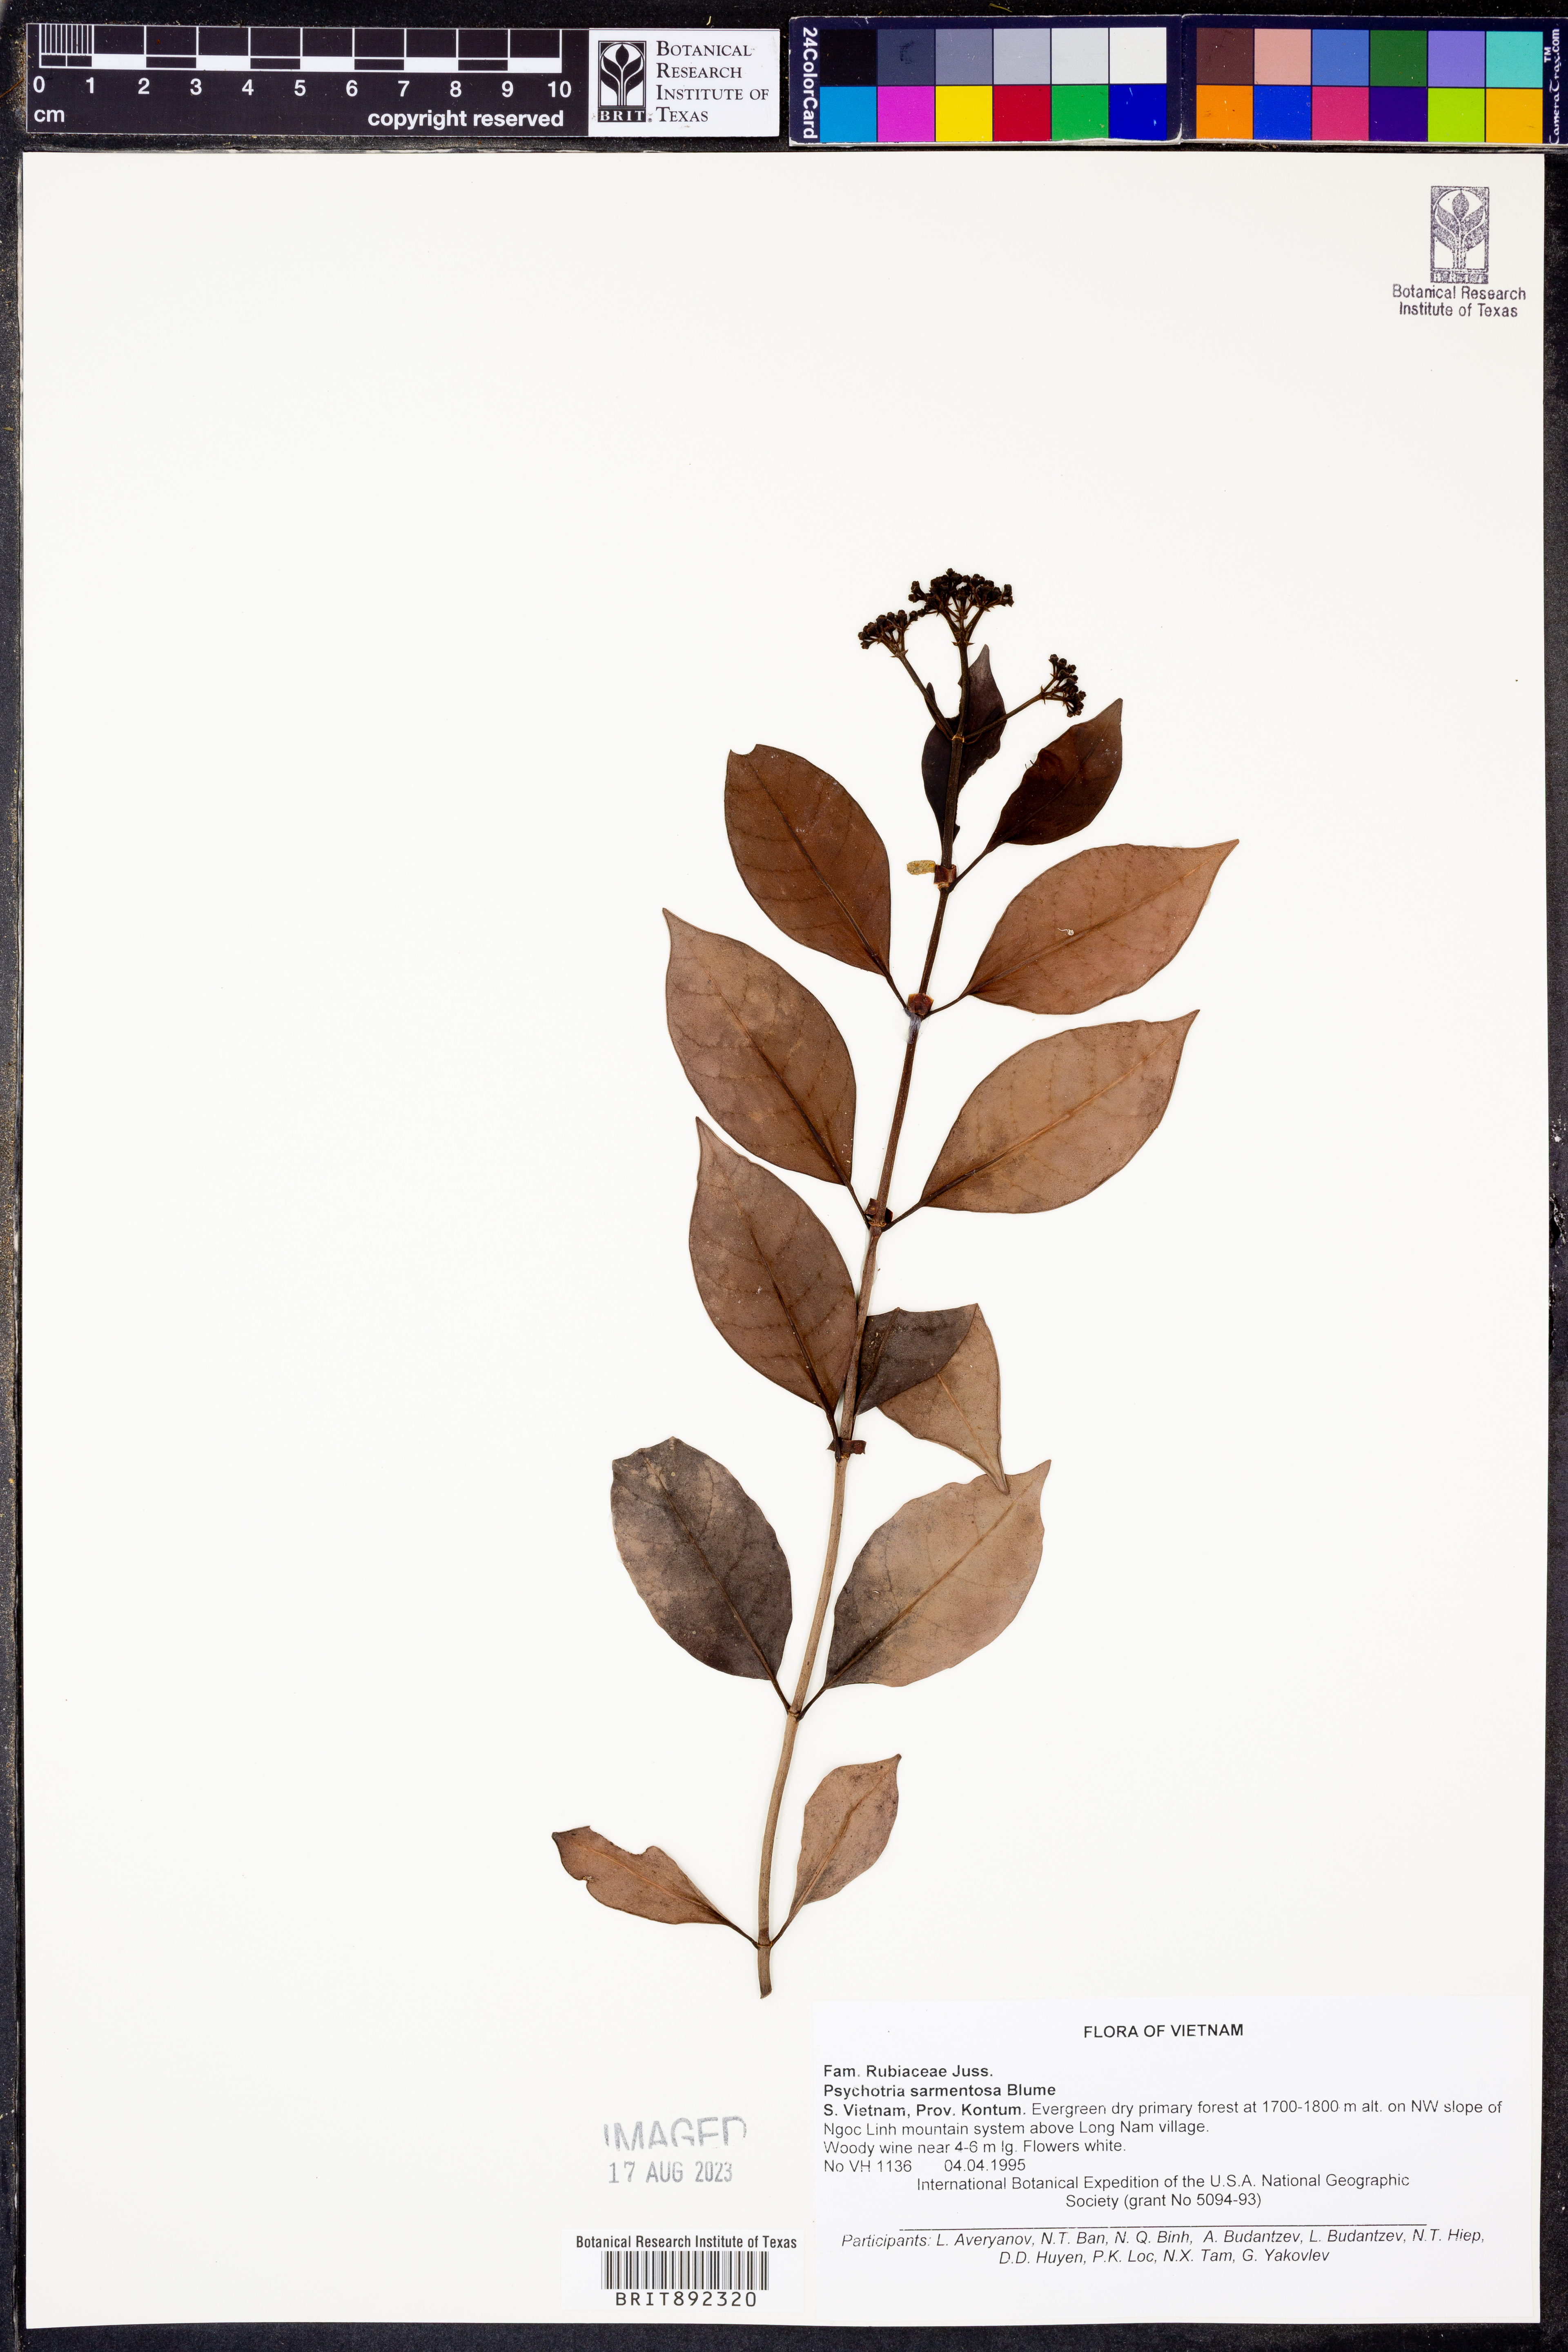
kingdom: Plantae
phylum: Tracheophyta
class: Magnoliopsida
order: Gentianales
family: Rubiaceae
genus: Psychotria
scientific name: Psychotria sarmentosa
